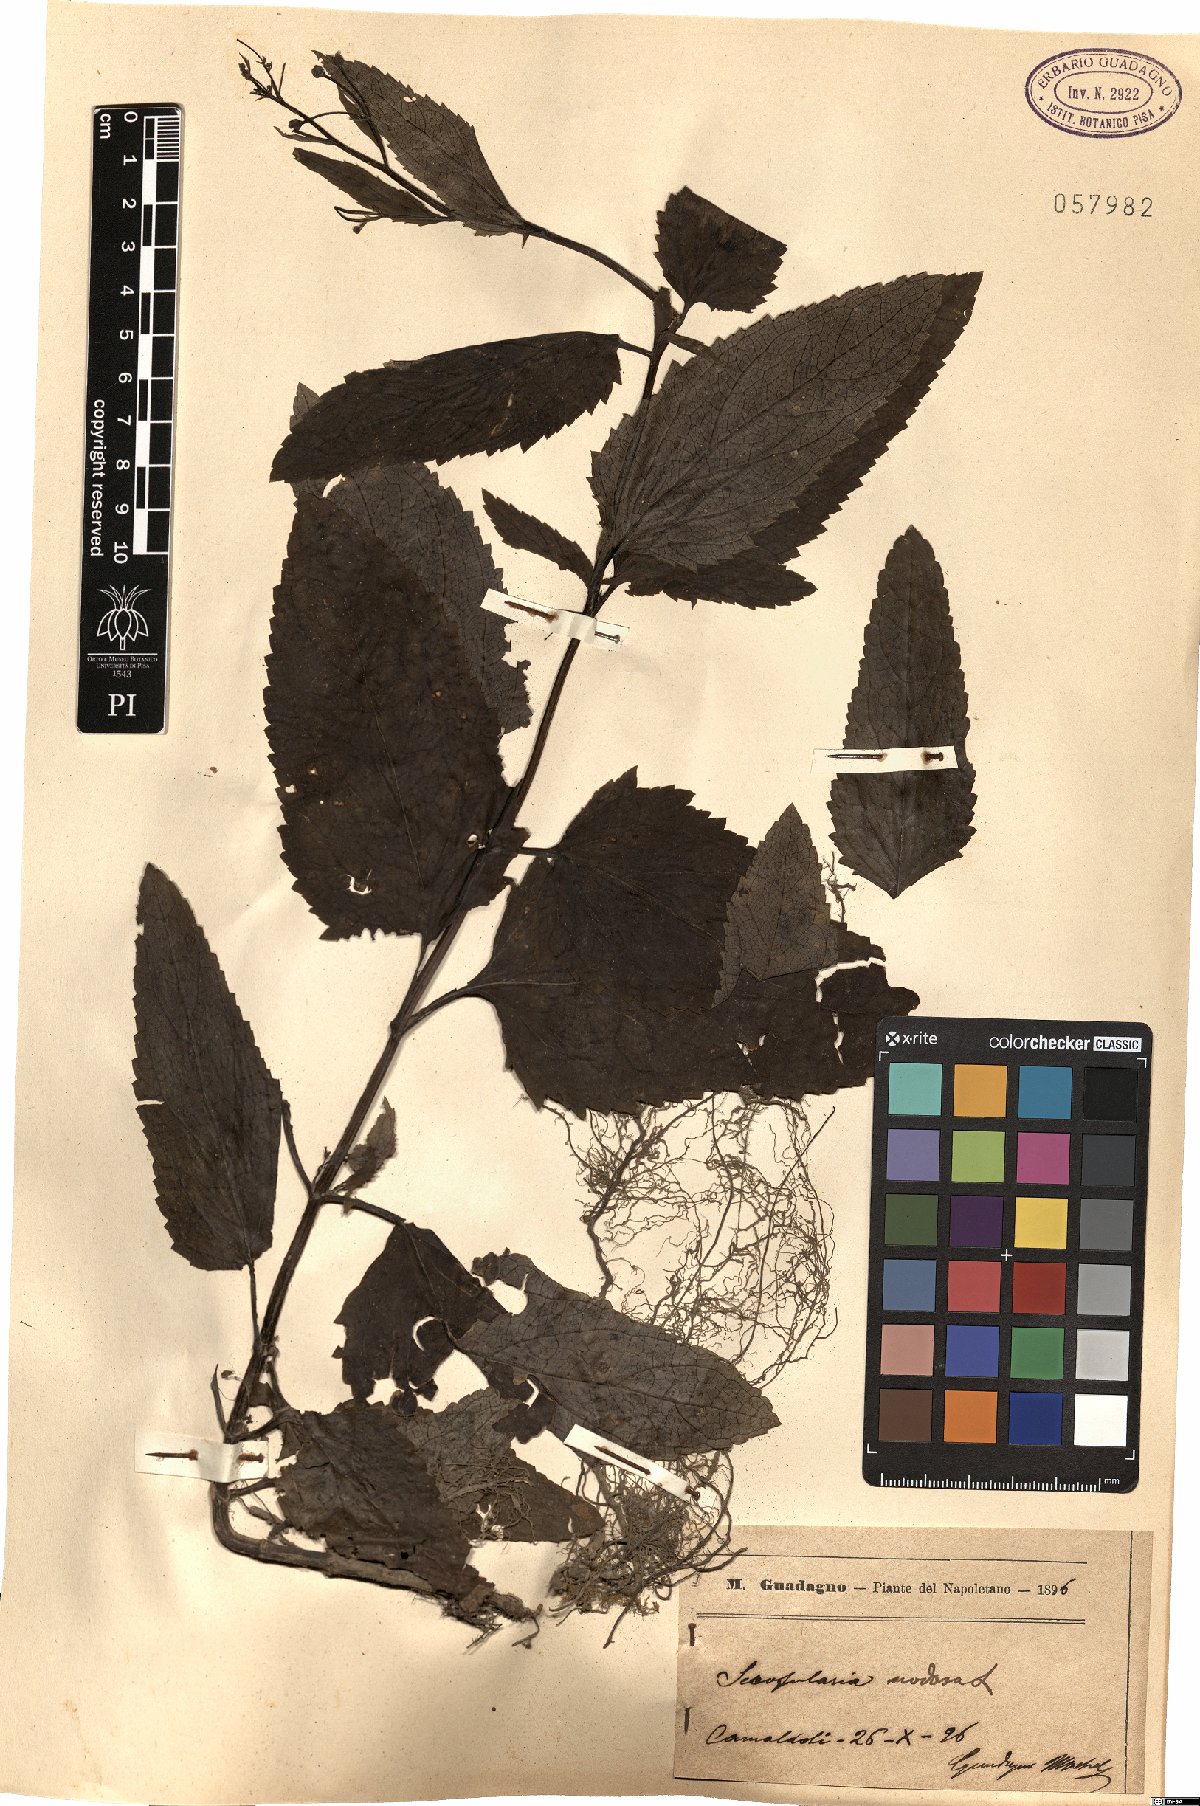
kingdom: Plantae
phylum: Tracheophyta
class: Magnoliopsida
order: Lamiales
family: Scrophulariaceae
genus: Scrophularia
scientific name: Scrophularia nodosa
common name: Common figwort
